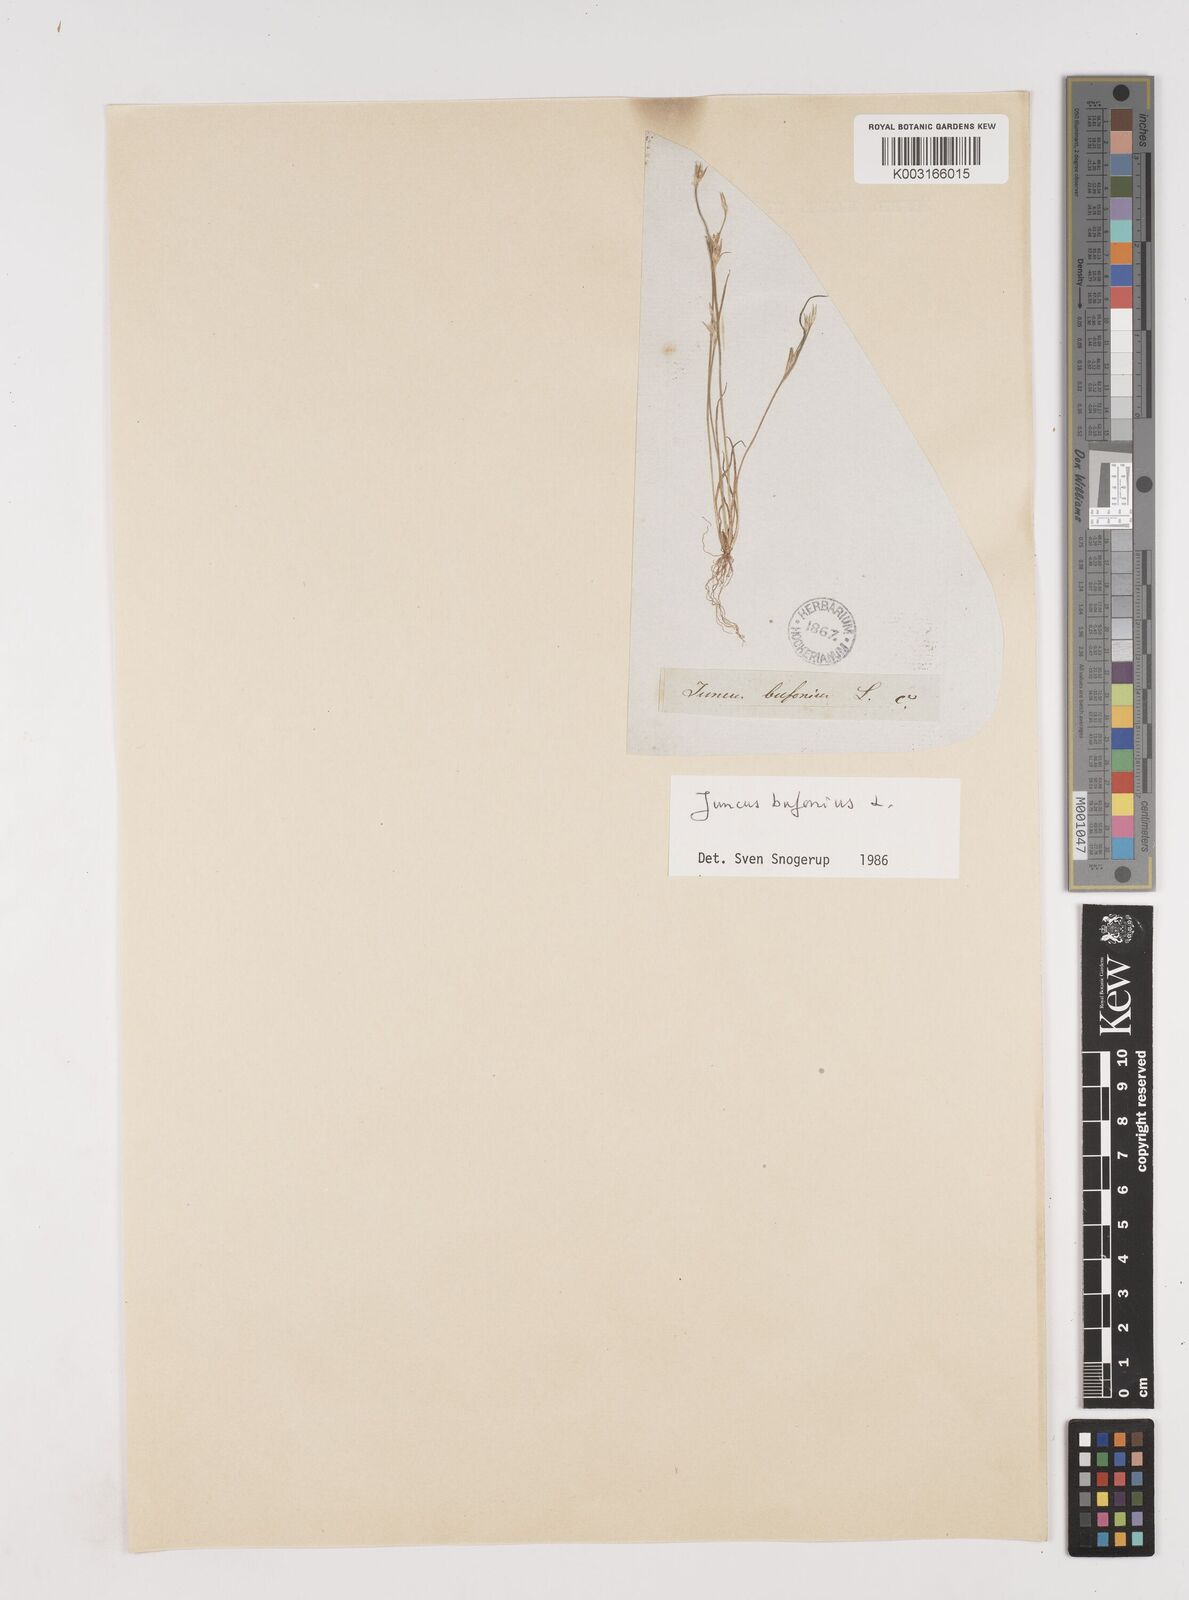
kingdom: Plantae
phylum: Tracheophyta
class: Liliopsida
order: Poales
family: Juncaceae
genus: Juncus
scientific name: Juncus bufonius
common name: Toad rush
